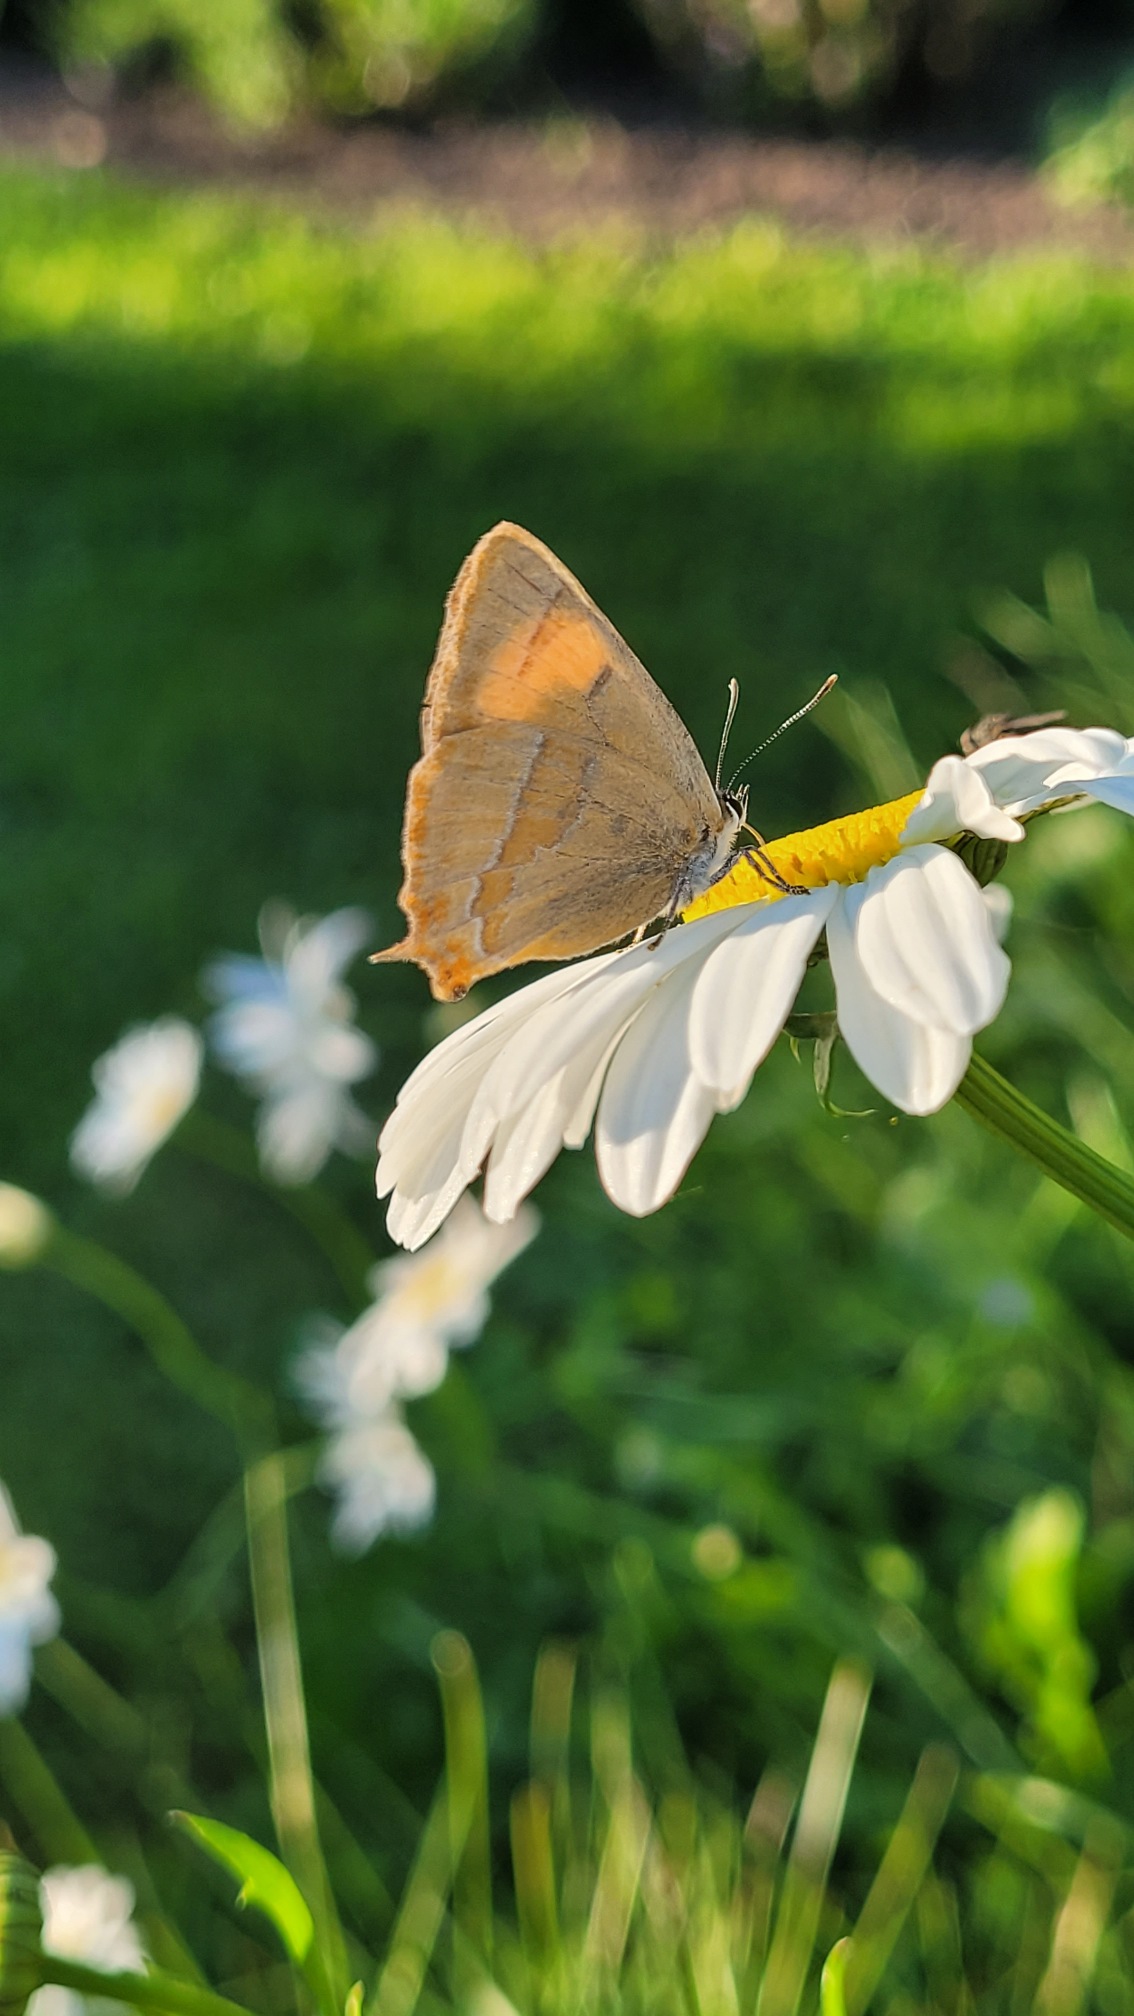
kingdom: Animalia
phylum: Arthropoda
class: Insecta
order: Lepidoptera
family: Lycaenidae
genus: Thecla
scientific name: Thecla betulae
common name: Guldhale
